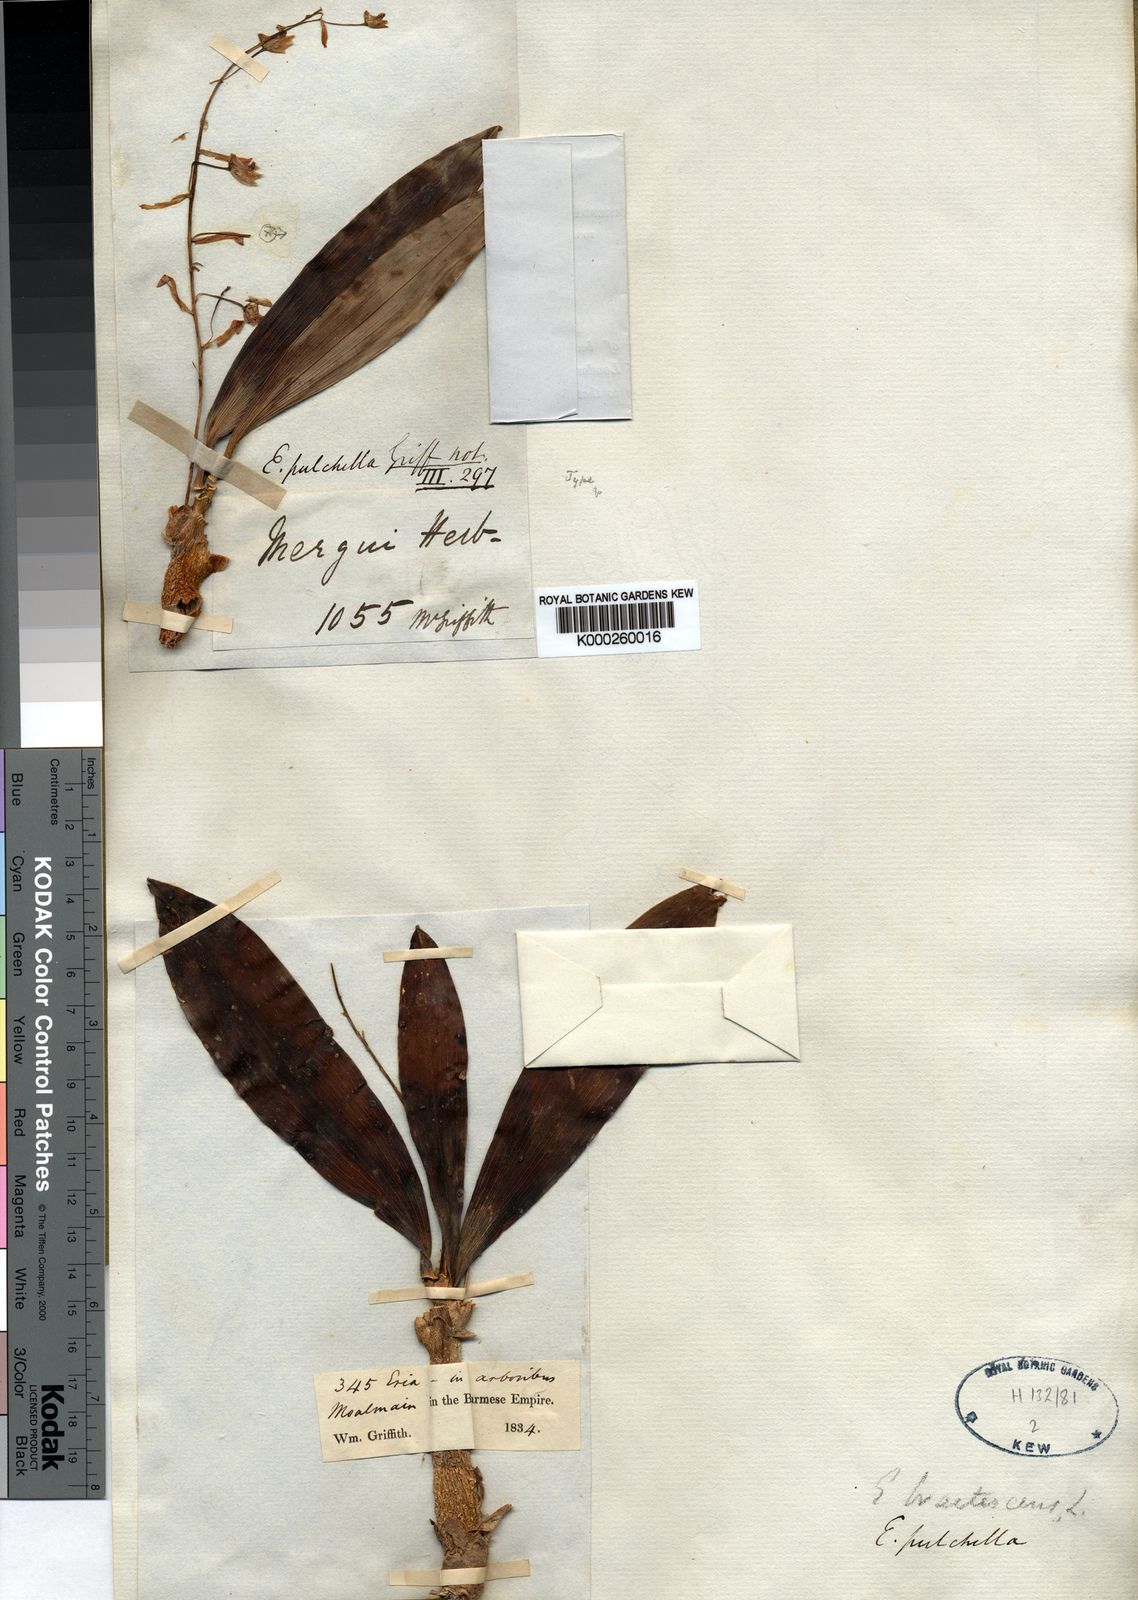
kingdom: Plantae
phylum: Tracheophyta
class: Liliopsida
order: Asparagales
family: Orchidaceae
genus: Pinalia
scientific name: Pinalia bractescens
